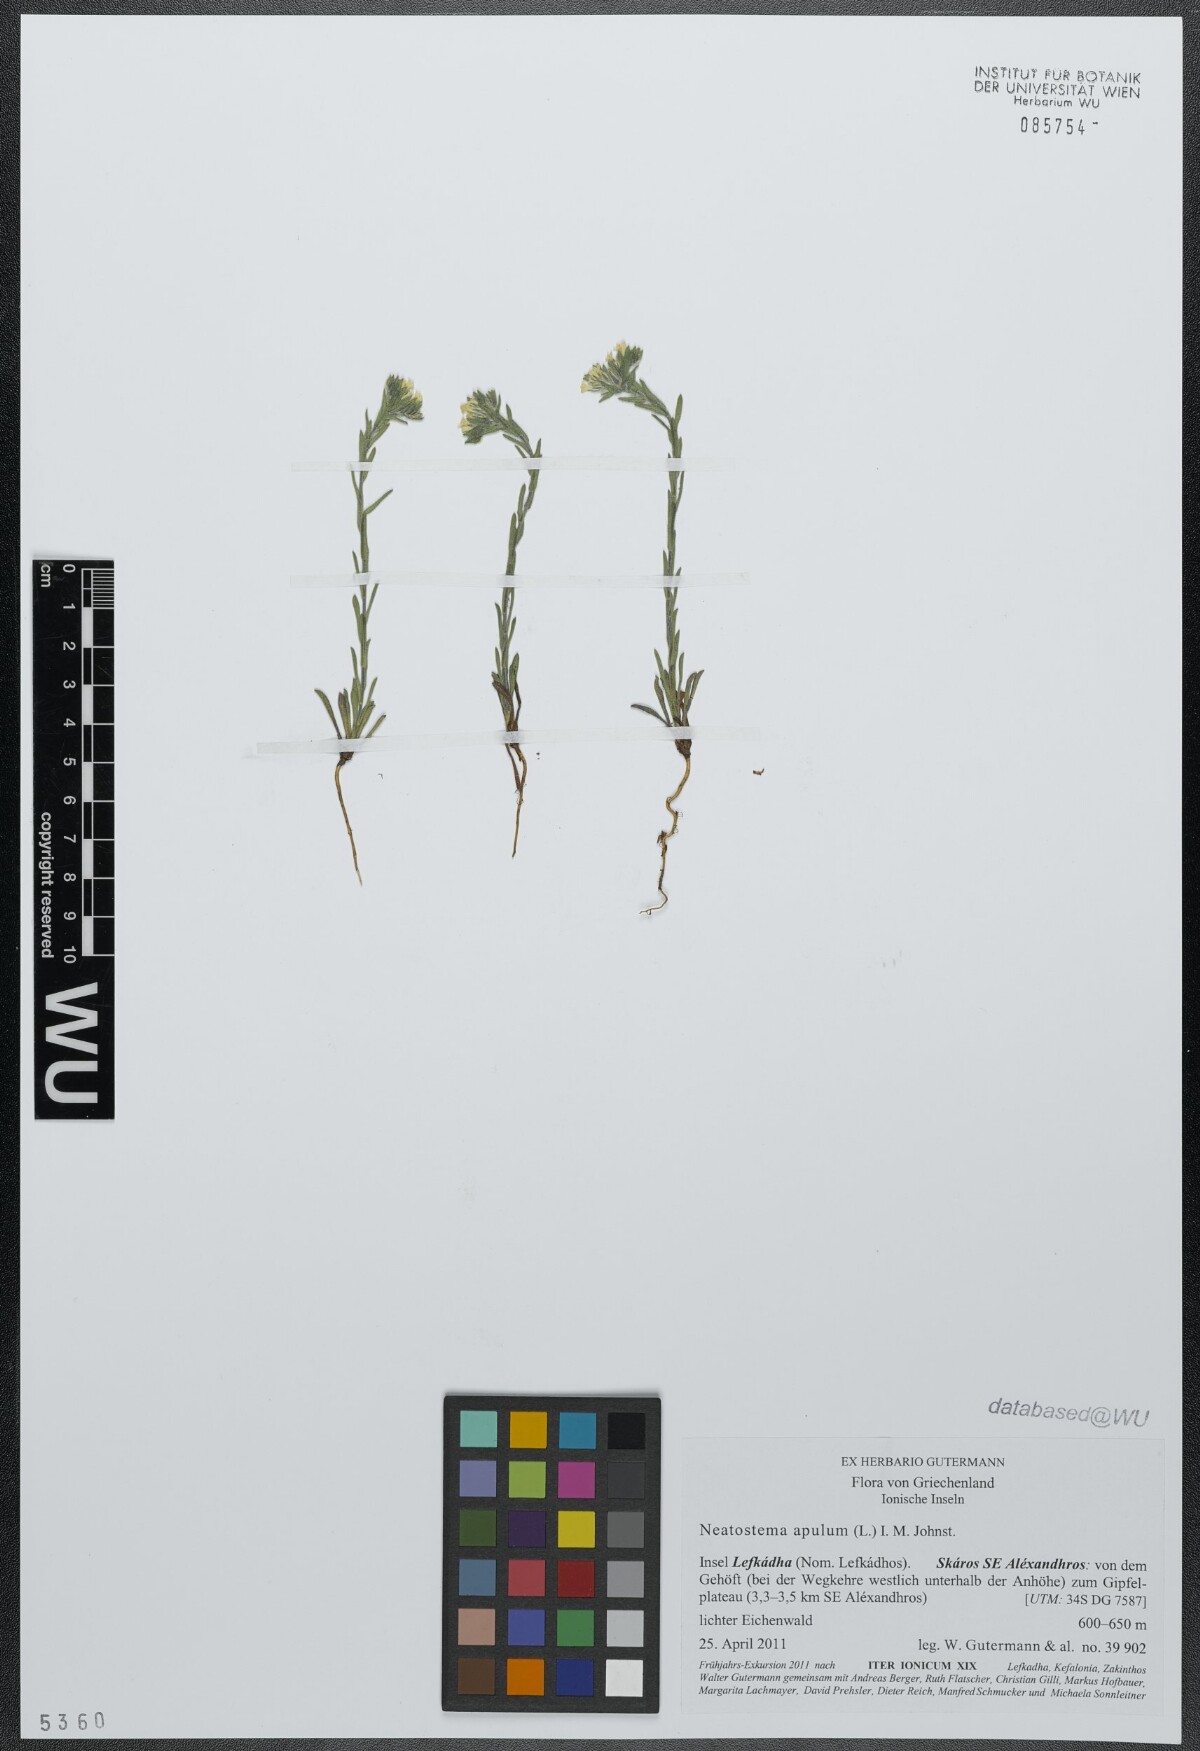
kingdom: Plantae
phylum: Tracheophyta
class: Magnoliopsida
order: Boraginales
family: Boraginaceae
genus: Neatostema
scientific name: Neatostema apulum
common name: Hairy sheepweed
